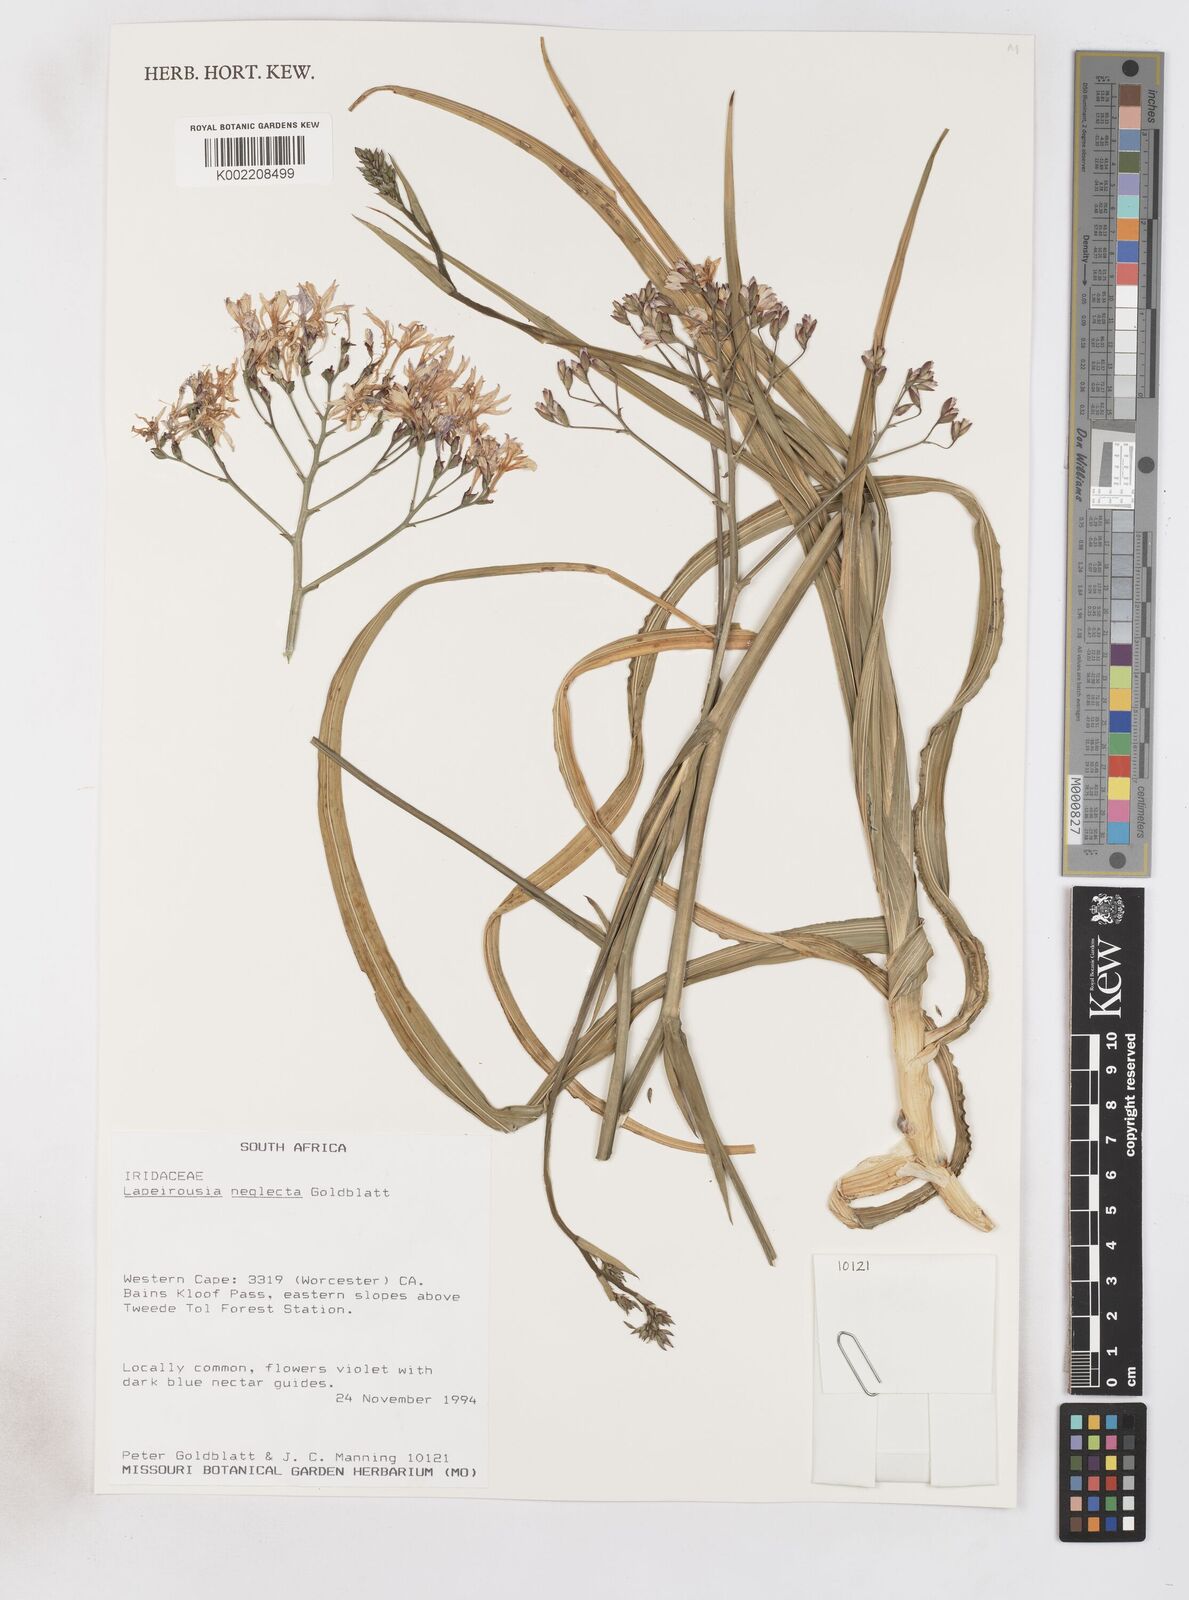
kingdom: Plantae
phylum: Tracheophyta
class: Liliopsida
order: Asparagales
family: Iridaceae
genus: Schizorhiza
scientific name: Schizorhiza neglecta
